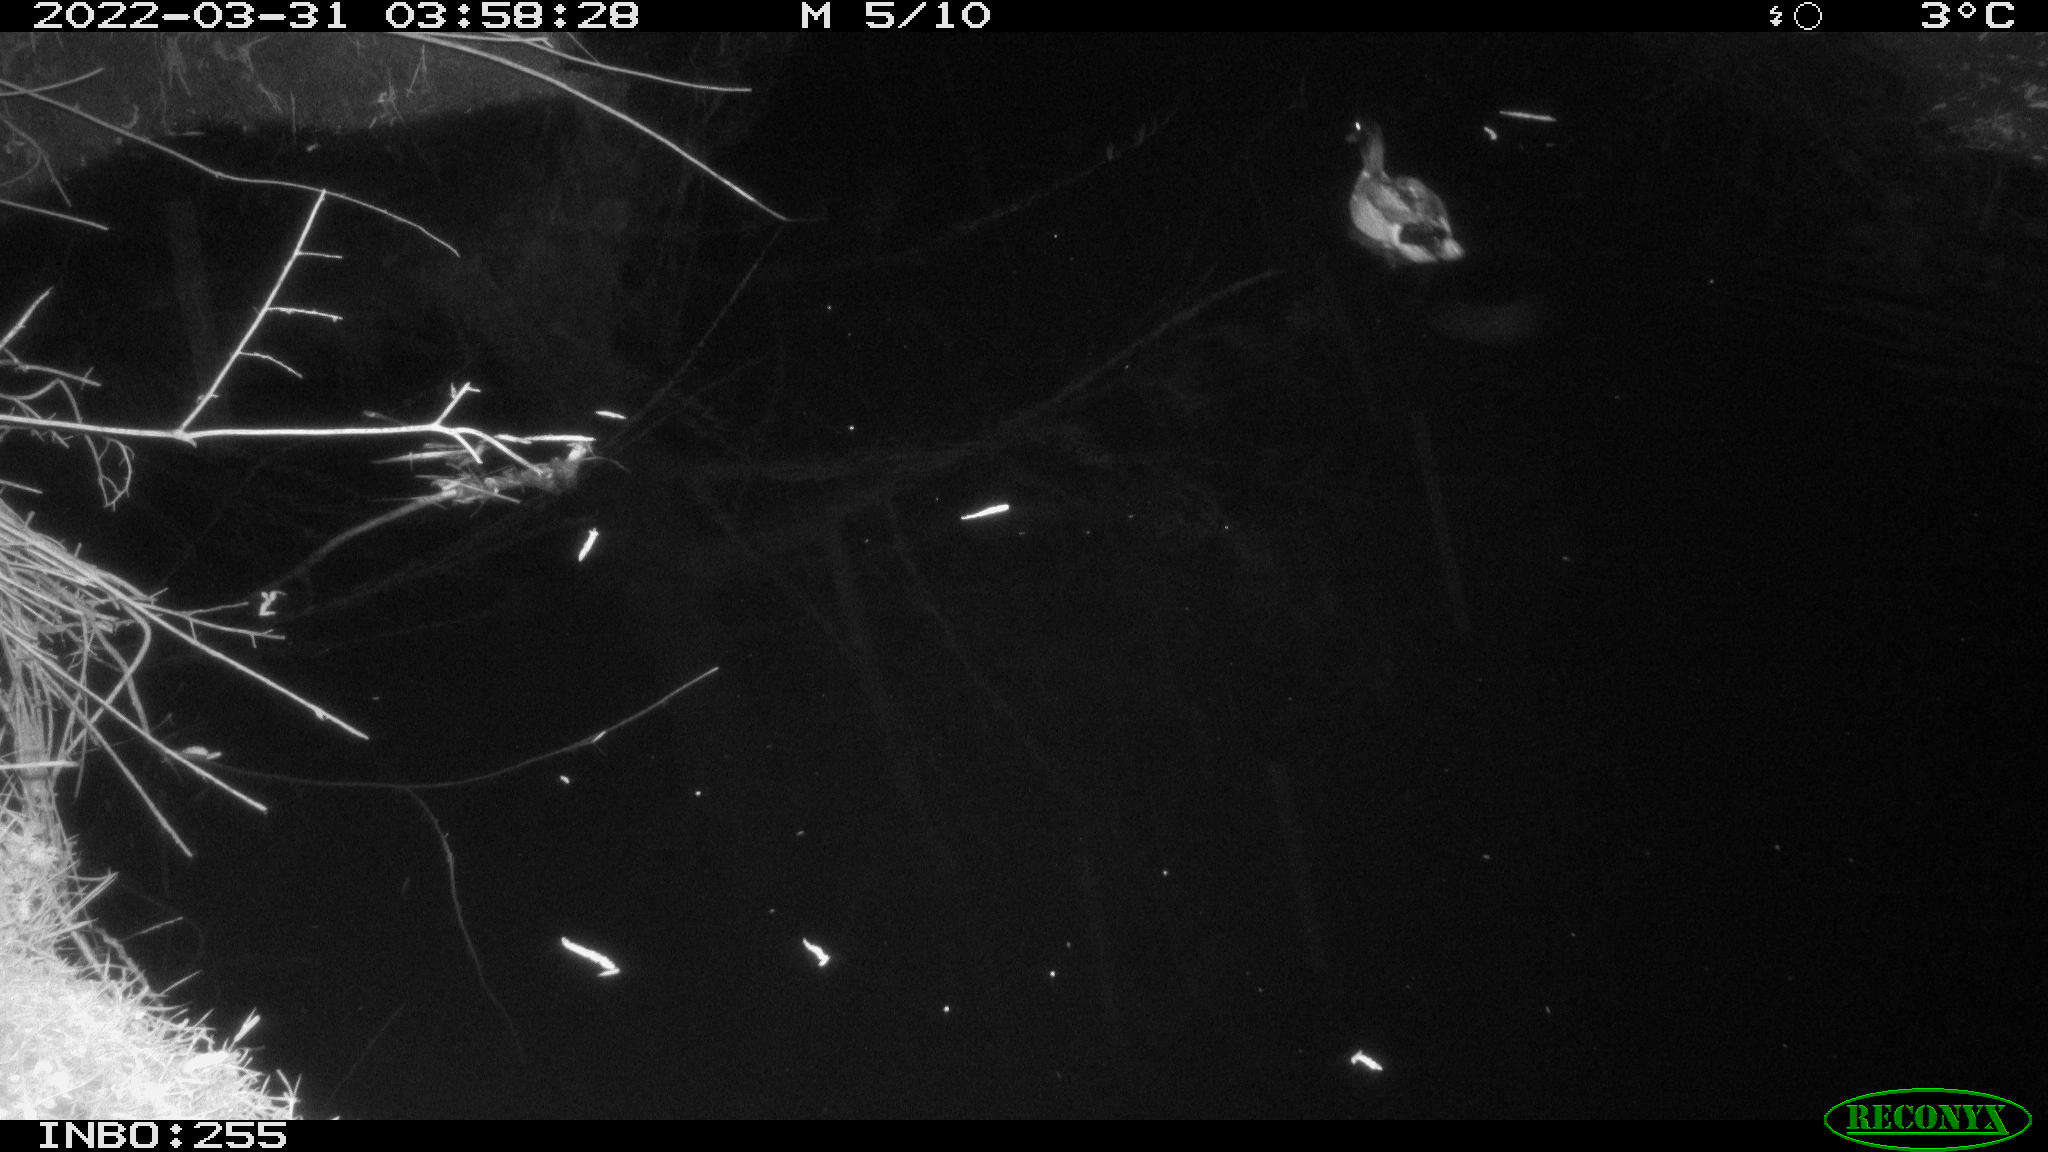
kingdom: Animalia
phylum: Chordata
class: Aves
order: Anseriformes
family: Anatidae
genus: Anas
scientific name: Anas platyrhynchos
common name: Mallard
